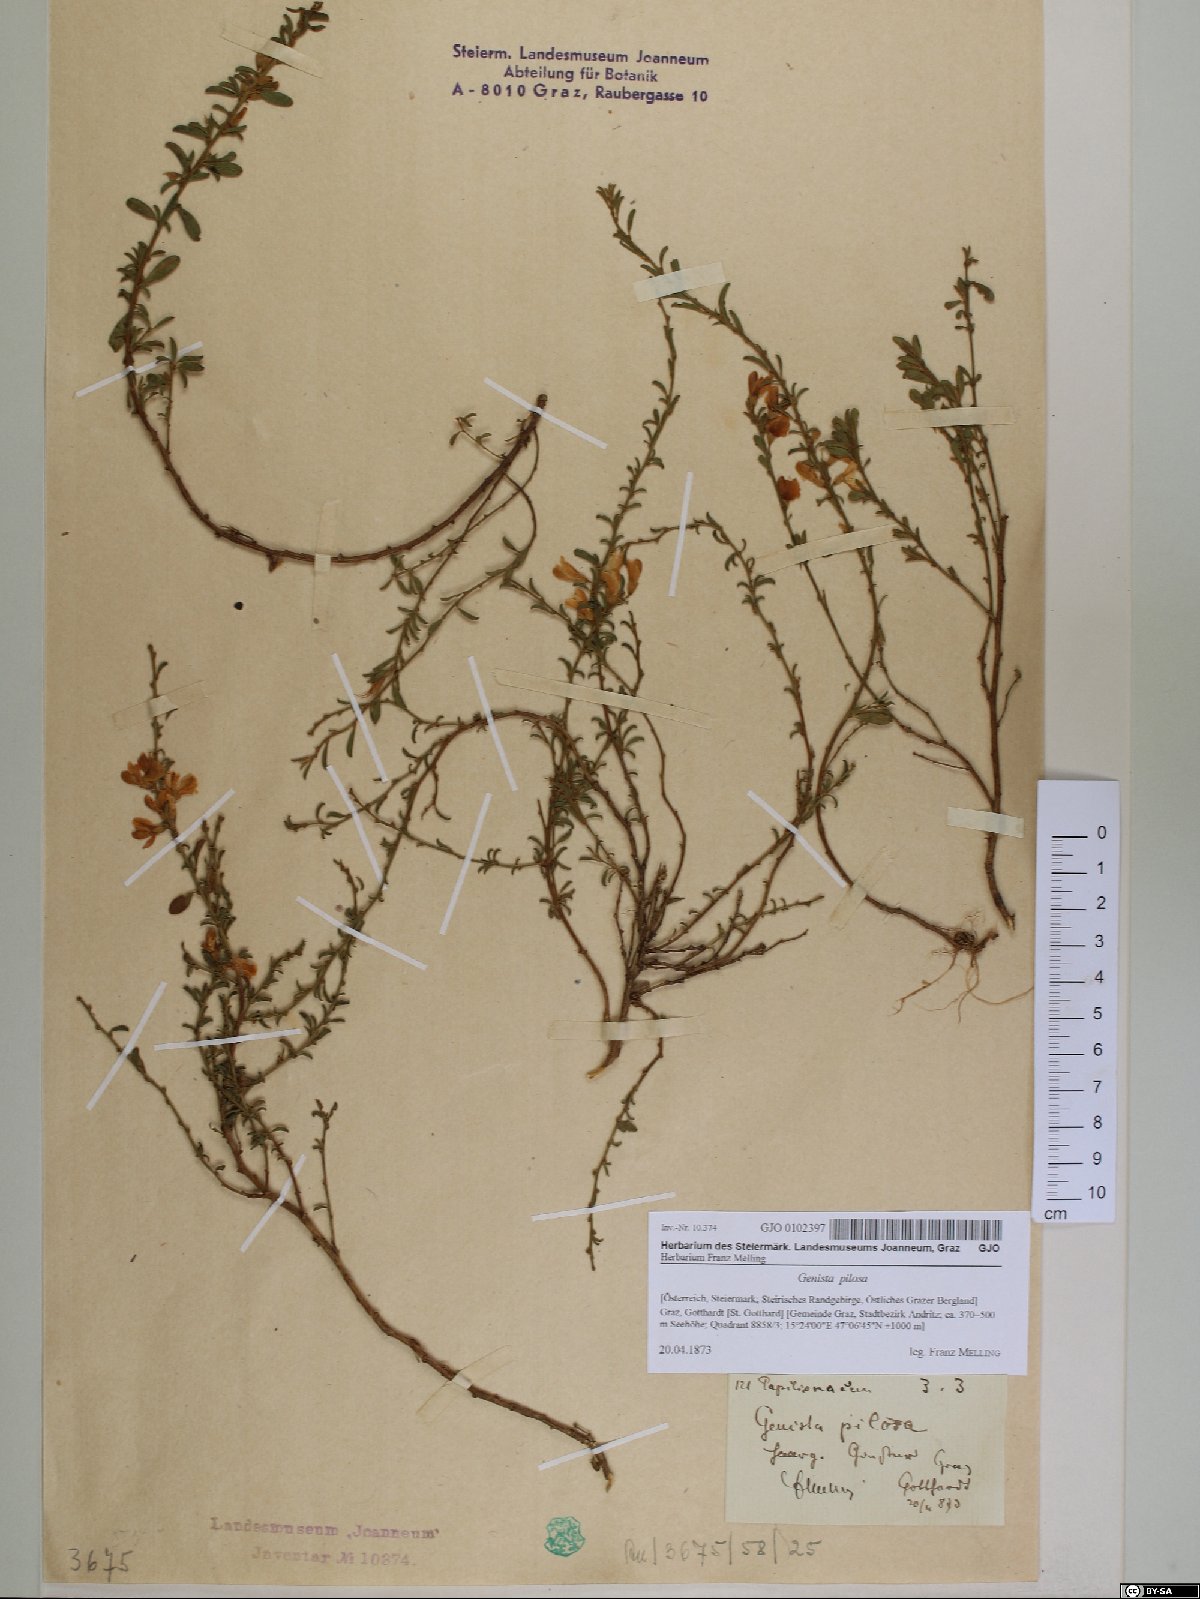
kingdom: Plantae
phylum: Tracheophyta
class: Magnoliopsida
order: Fabales
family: Fabaceae
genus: Genista
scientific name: Genista pilosa
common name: Hairy greenweed
